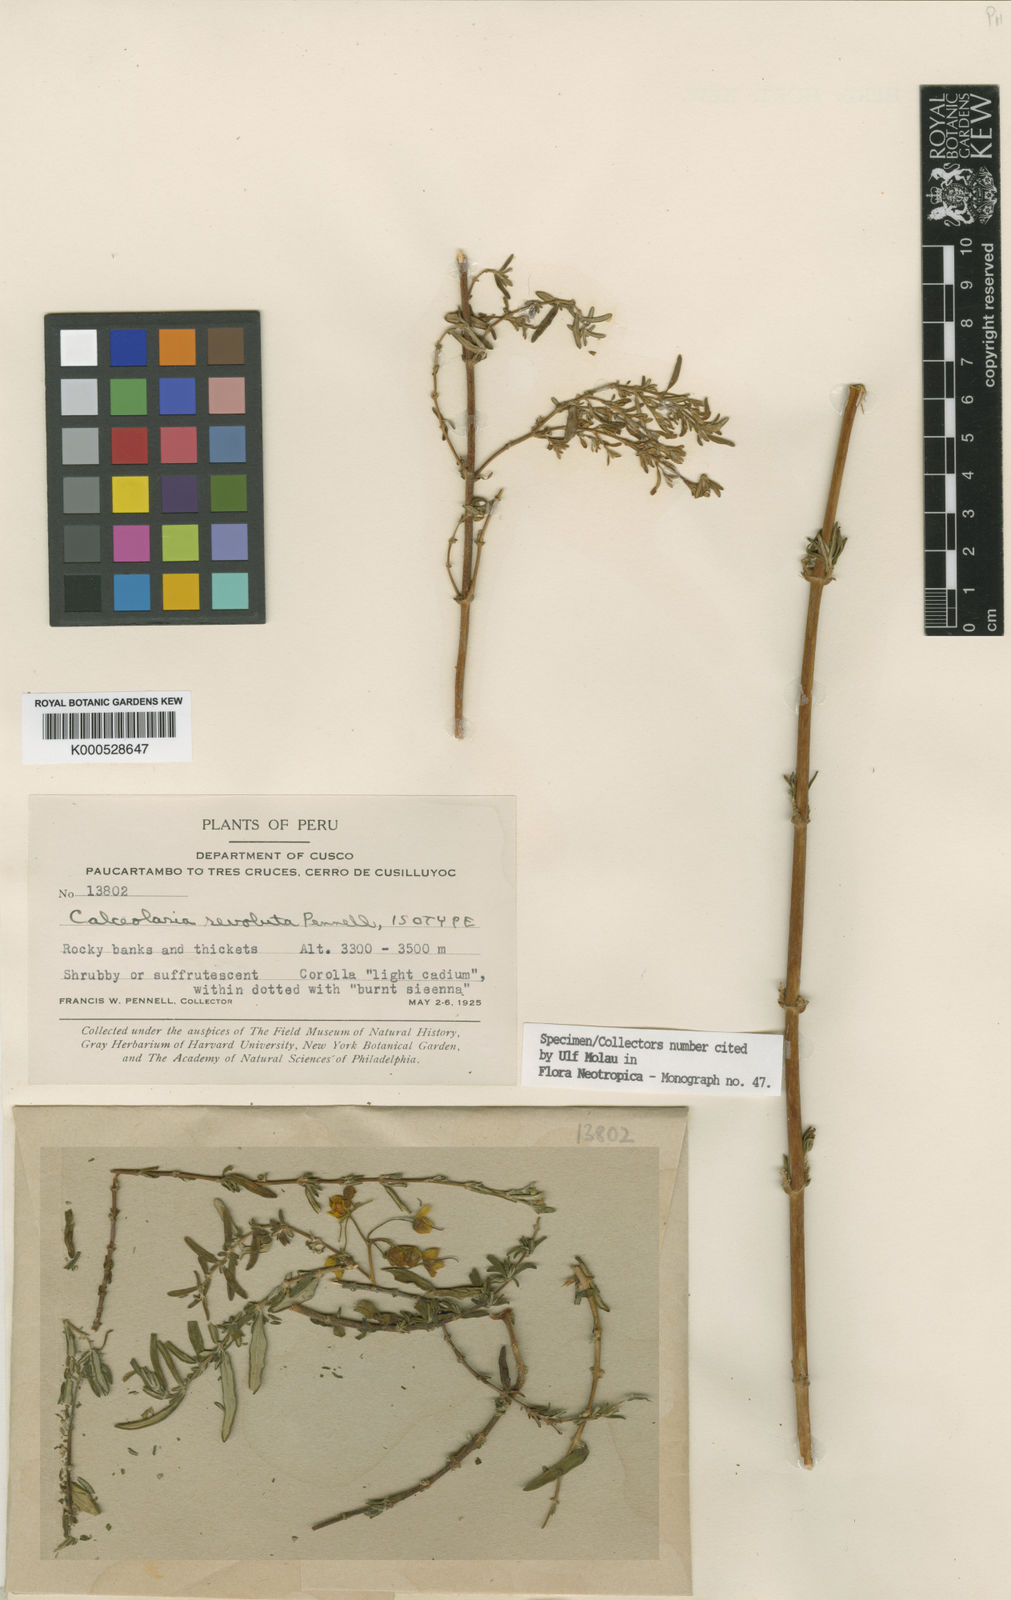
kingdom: Plantae
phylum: Tracheophyta
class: Magnoliopsida
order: Lamiales
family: Calceolariaceae
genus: Calceolaria
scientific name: Calceolaria revoluta
